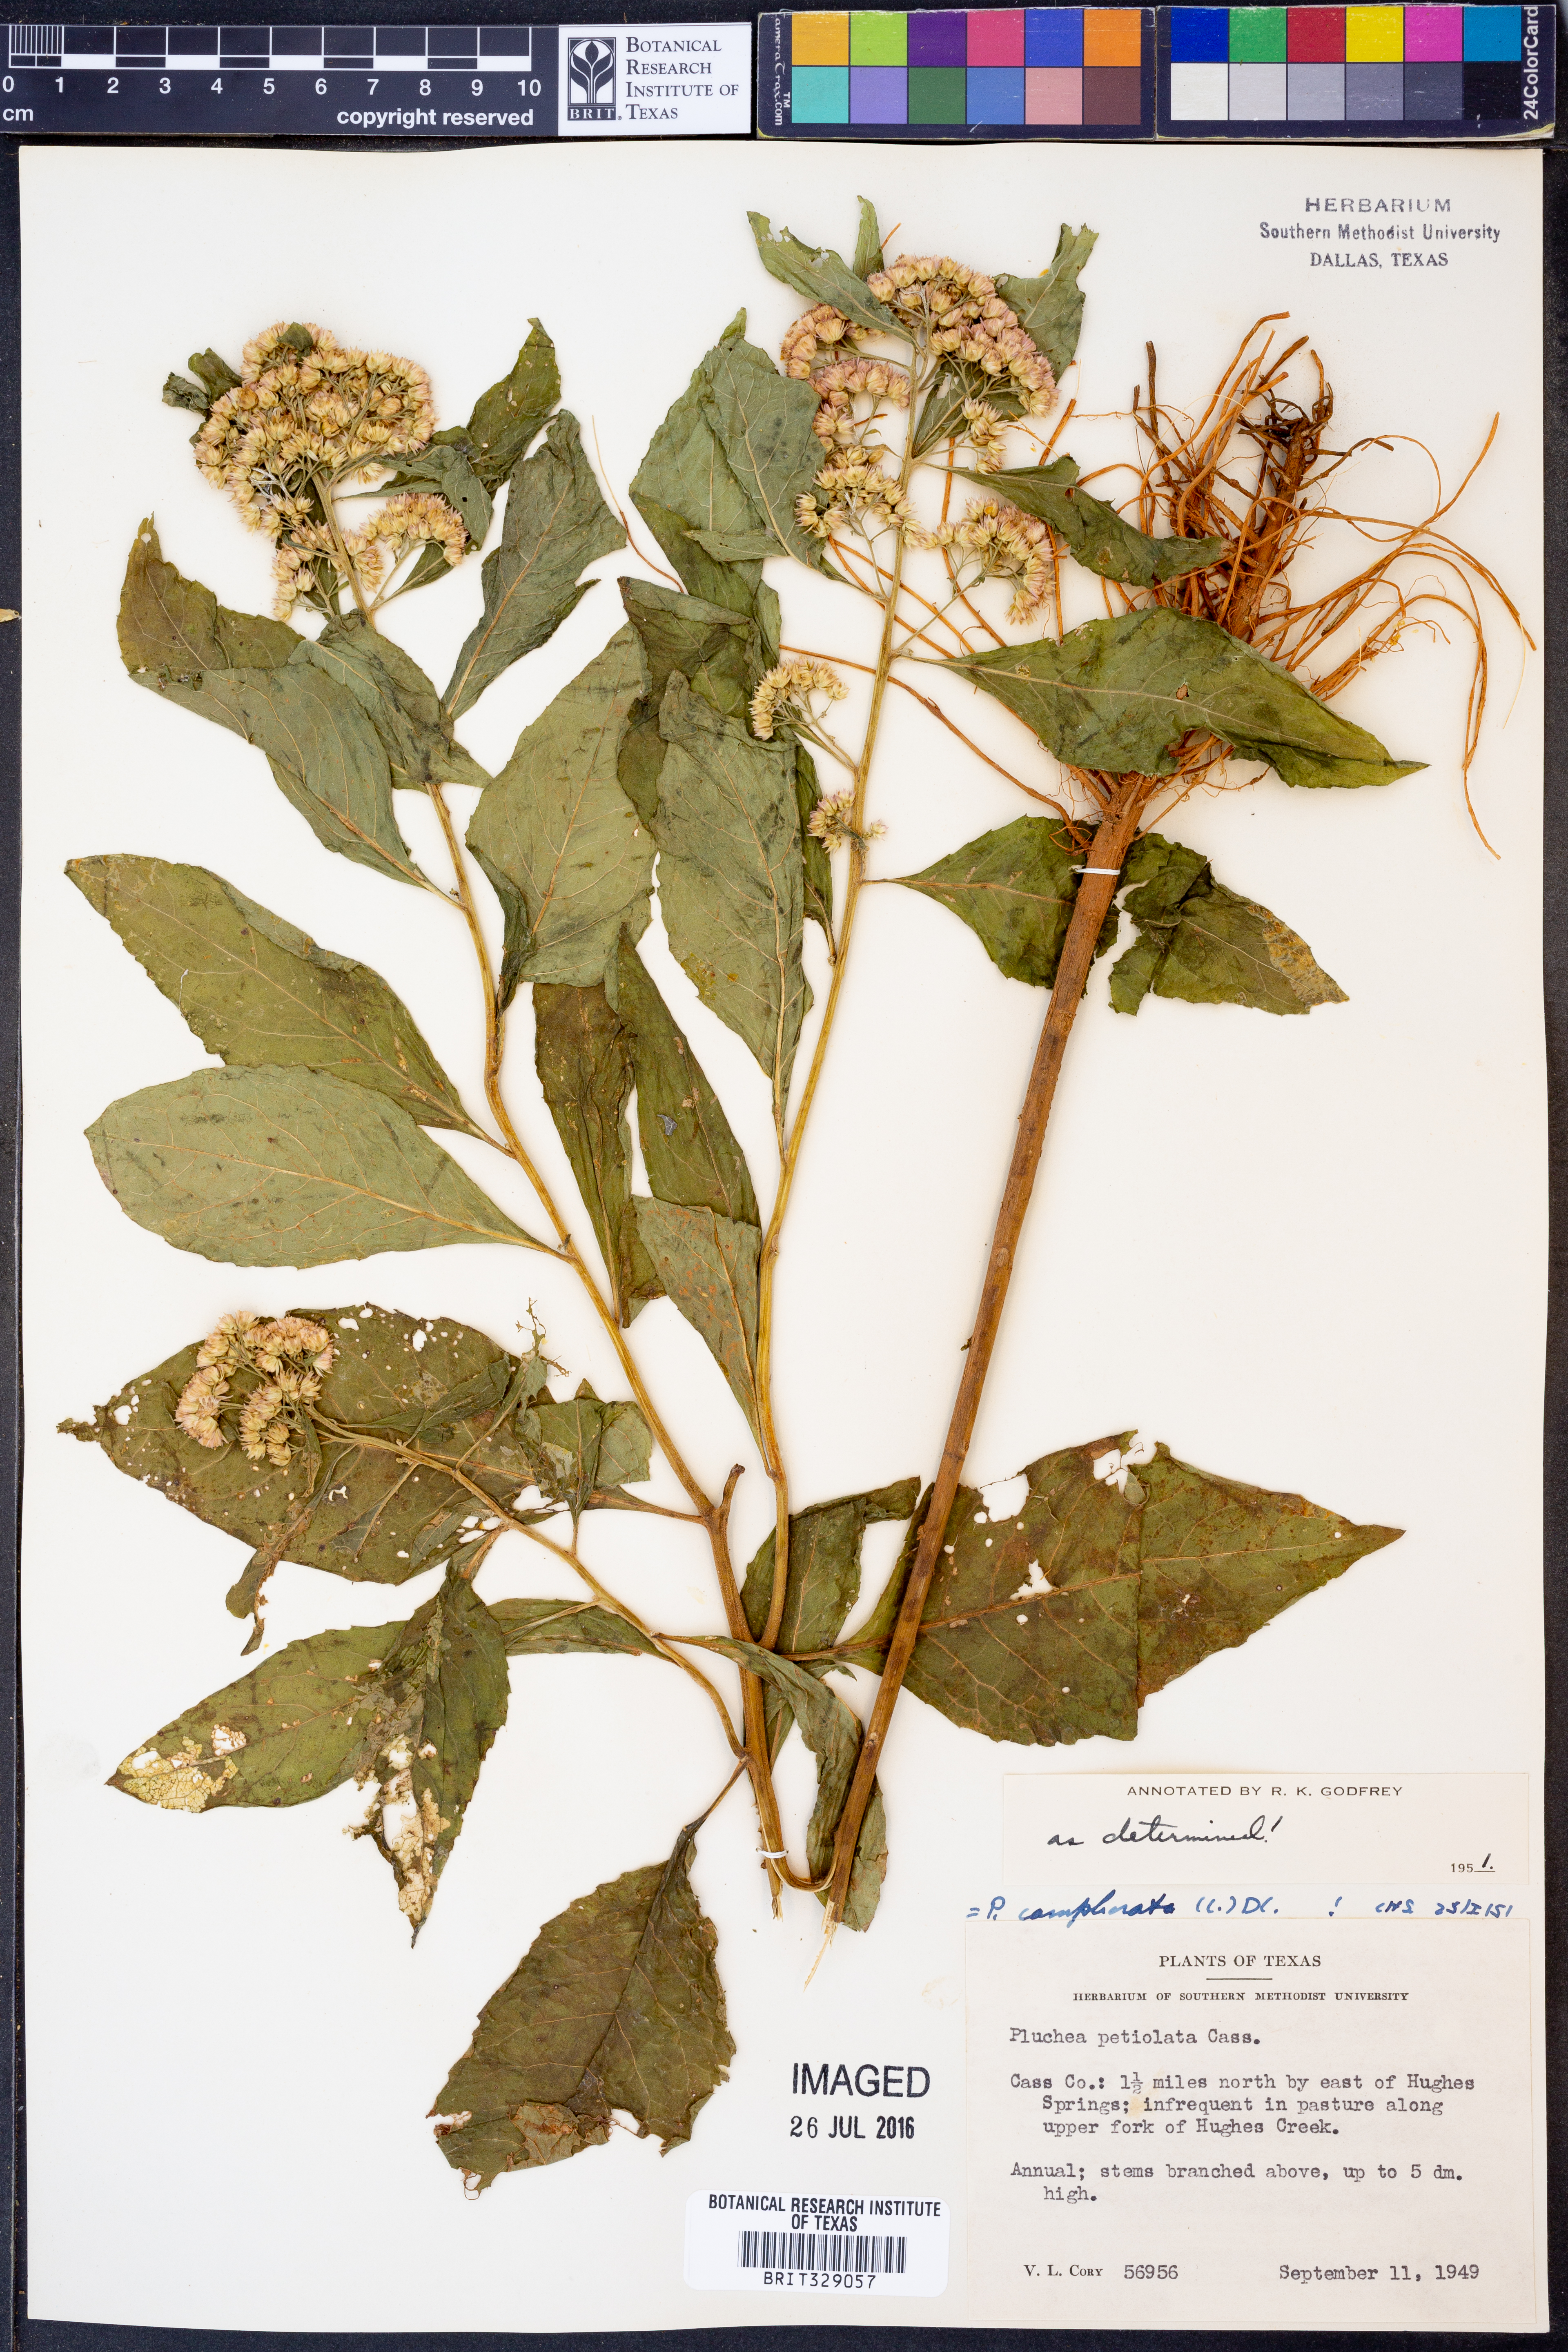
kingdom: Plantae
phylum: Tracheophyta
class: Magnoliopsida
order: Asterales
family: Asteraceae
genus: Pluchea
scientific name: Pluchea camphorata
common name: Camphor pluchea
